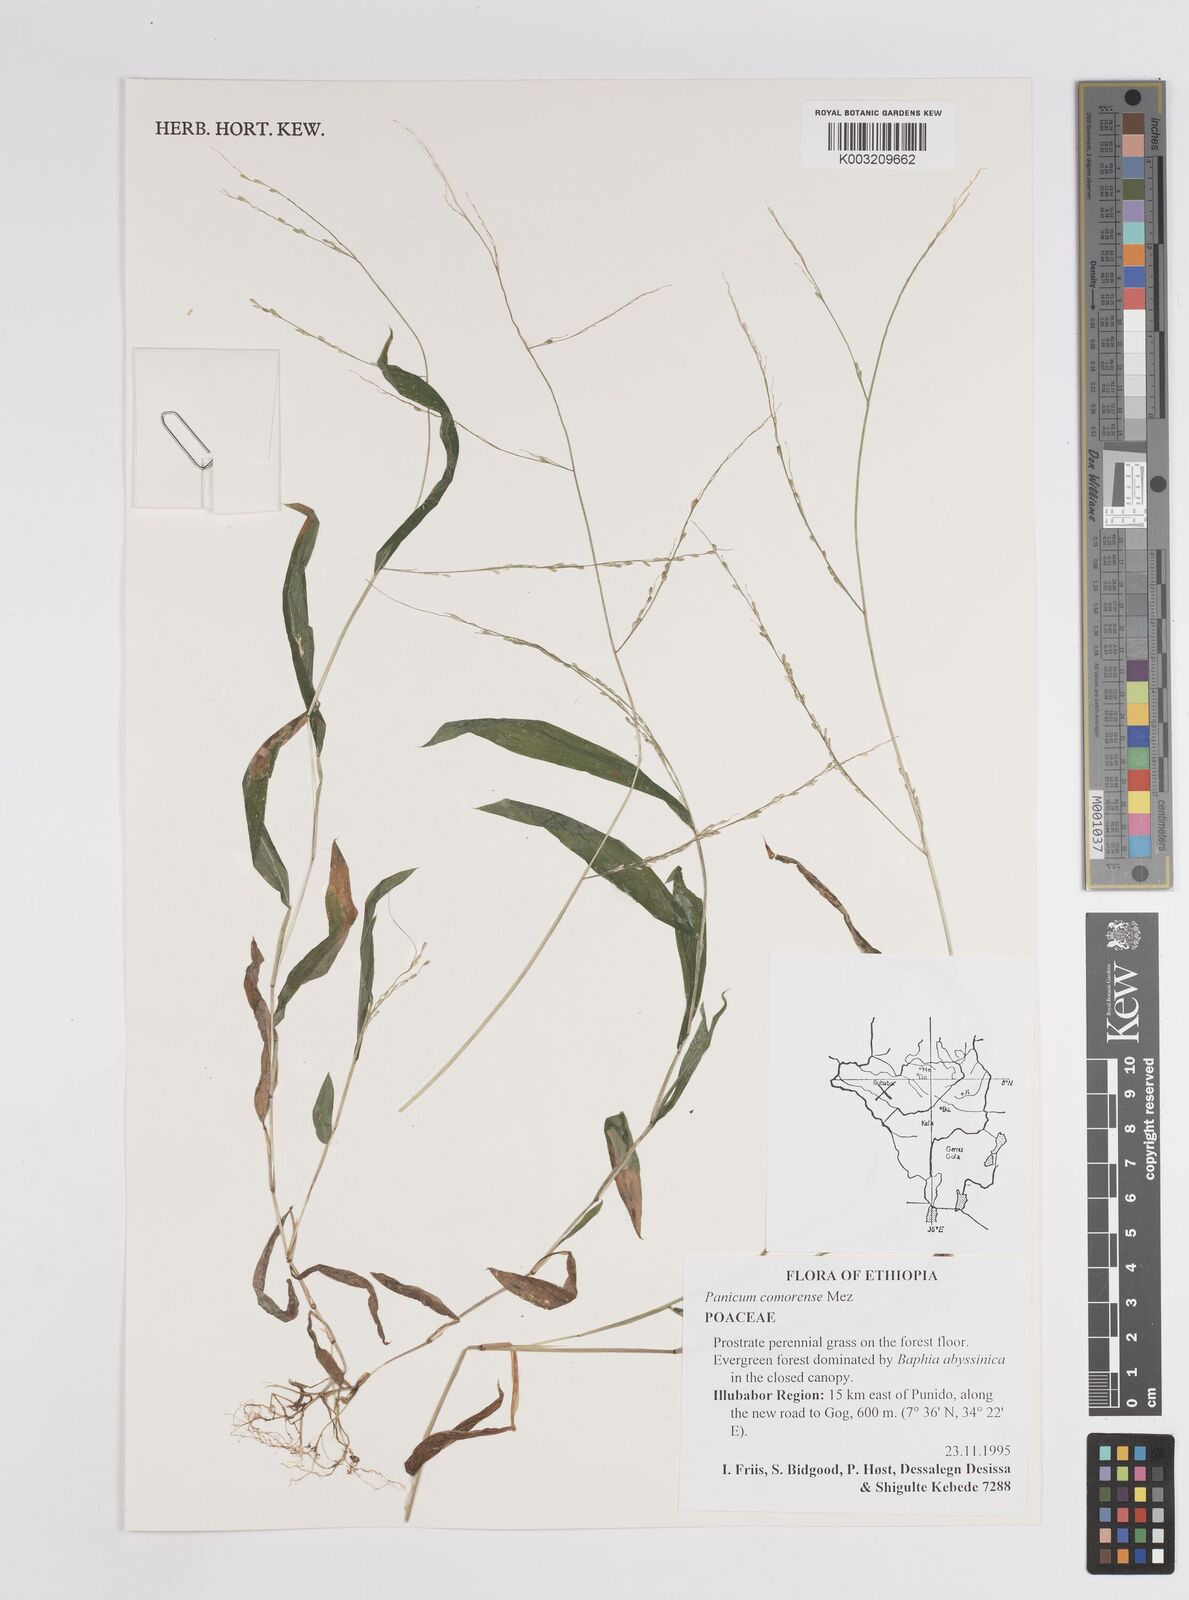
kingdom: Plantae
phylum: Tracheophyta
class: Liliopsida
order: Poales
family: Poaceae
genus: Panicum
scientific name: Panicum comorense
